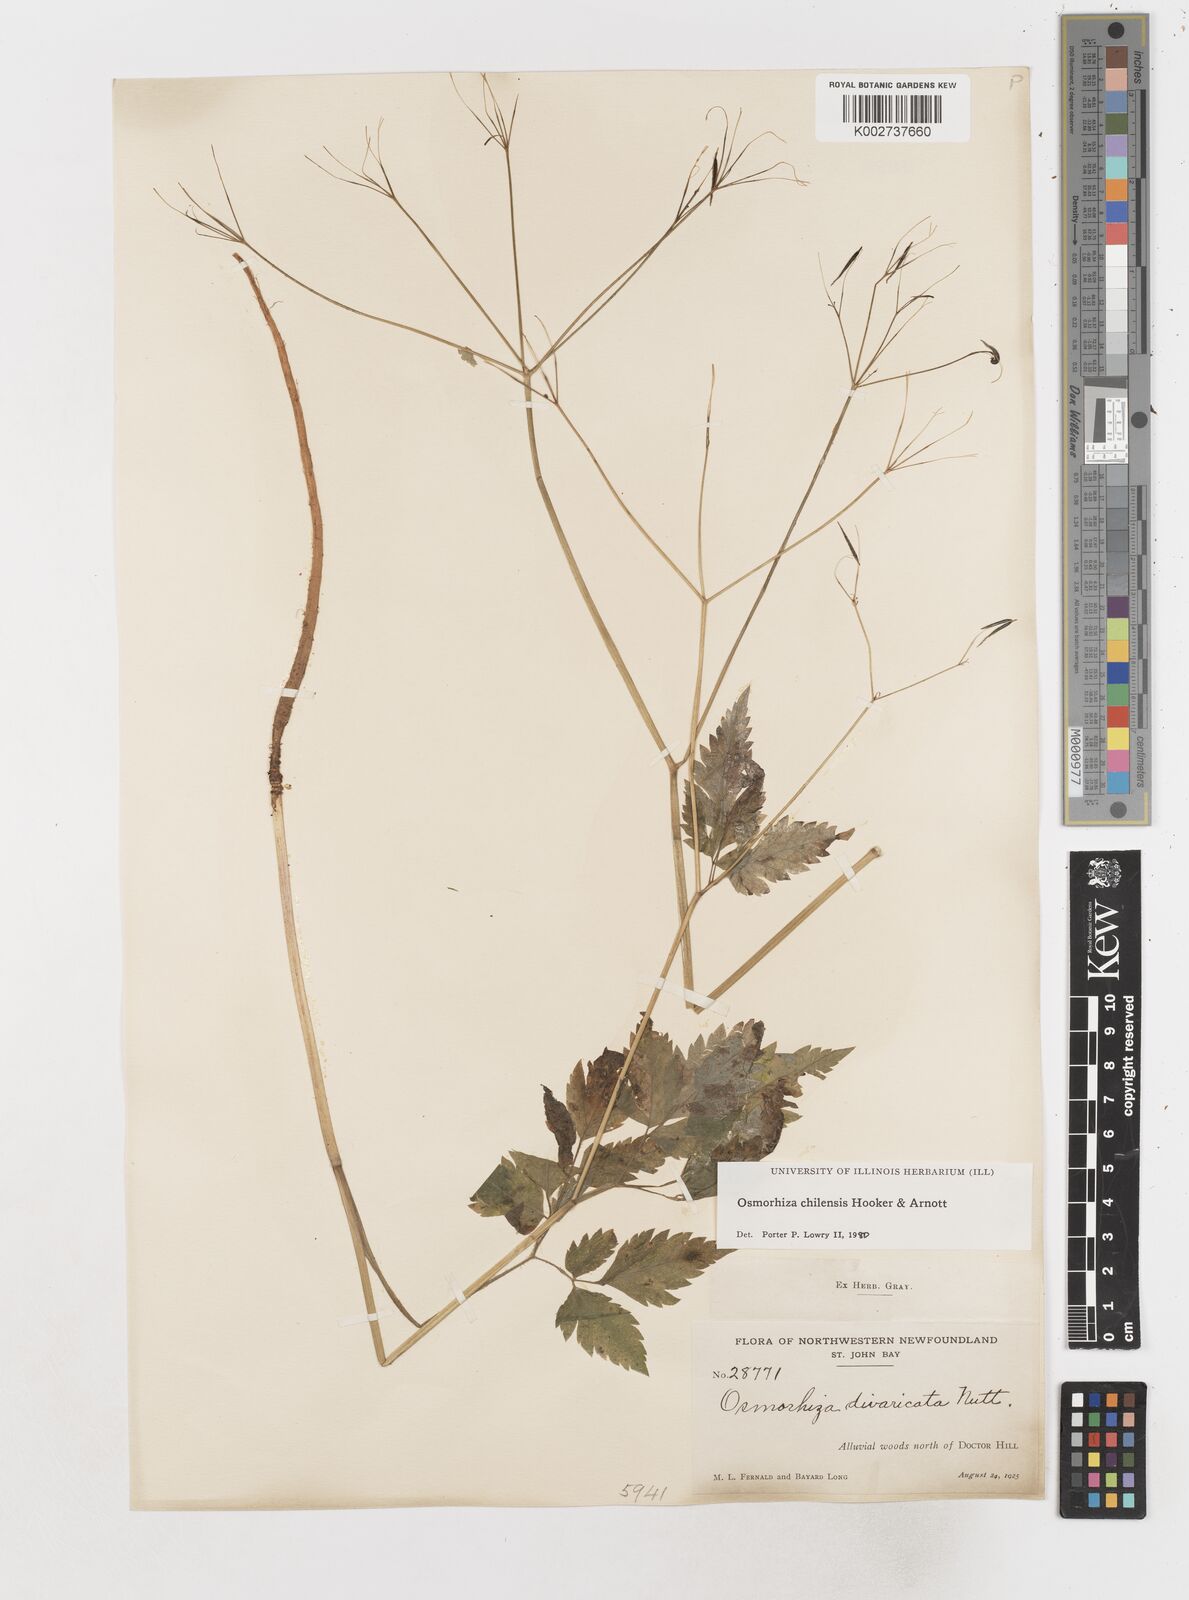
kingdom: Plantae
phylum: Tracheophyta
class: Magnoliopsida
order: Apiales
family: Apiaceae
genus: Osmorhiza
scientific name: Osmorhiza berteroi
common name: Mountain sweet cicely
